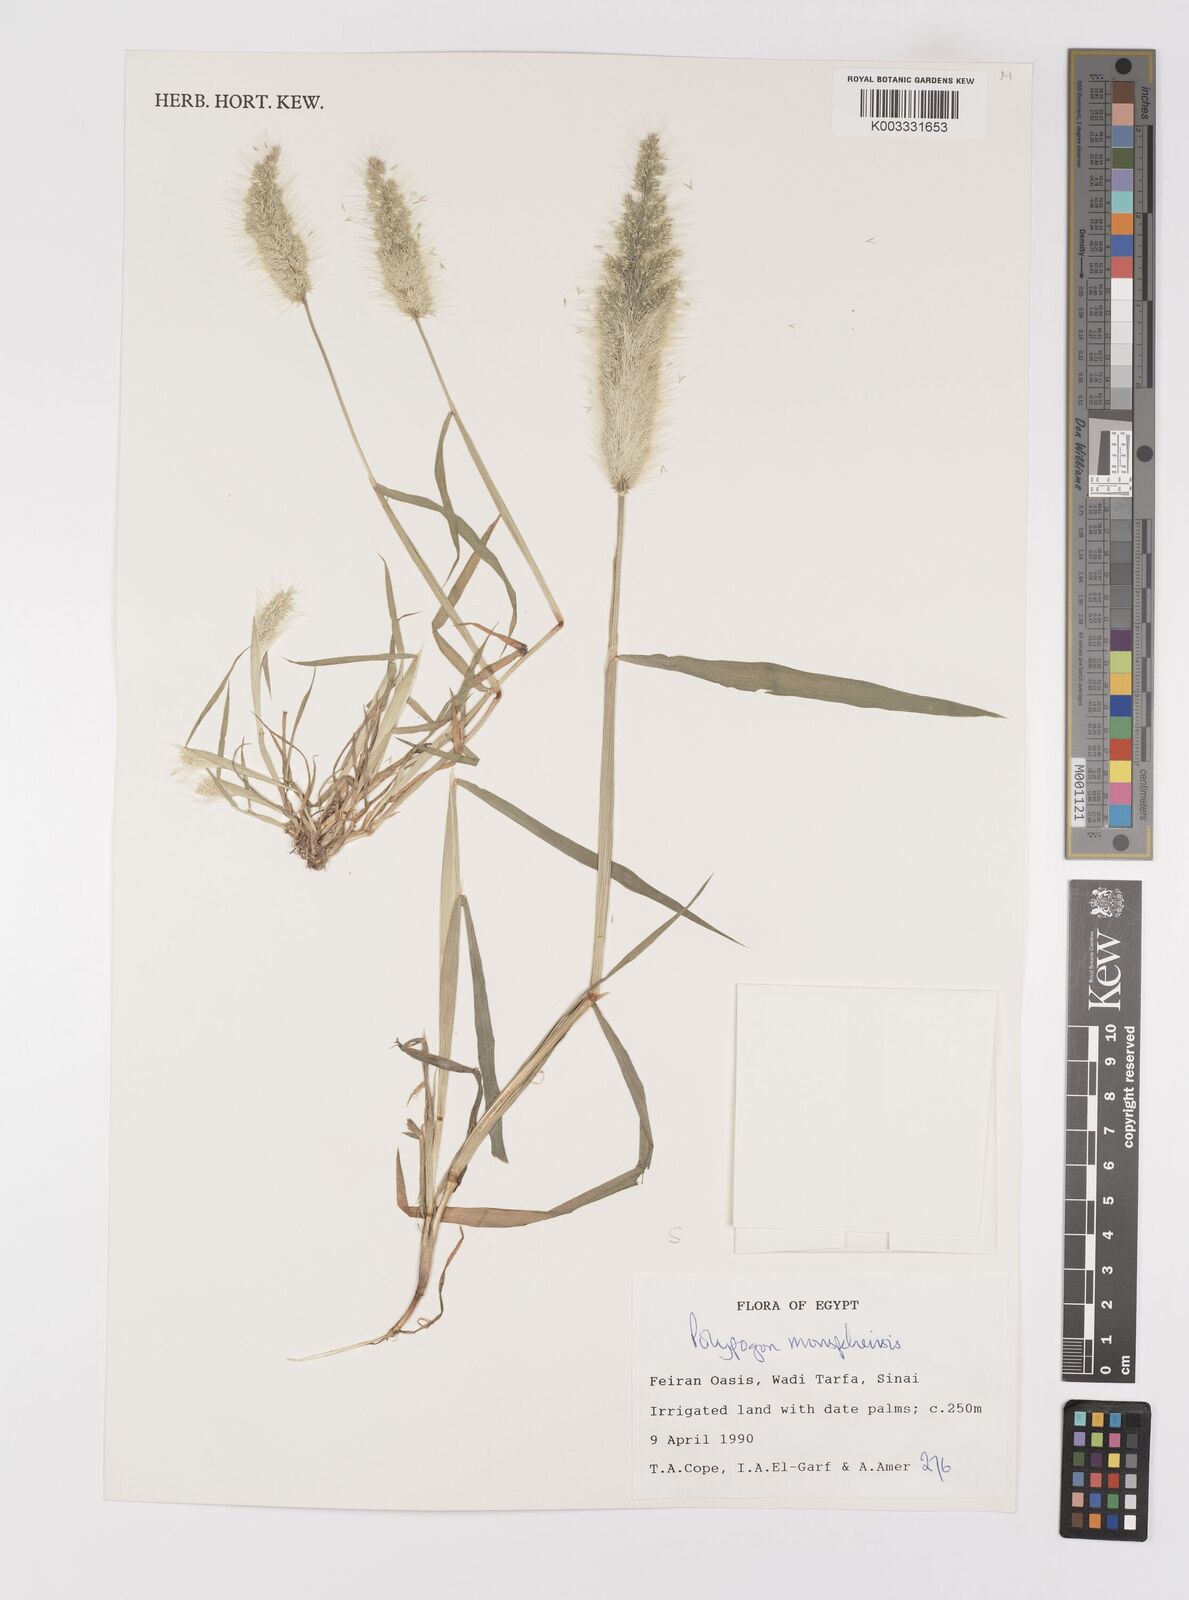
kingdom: Plantae
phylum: Tracheophyta
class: Liliopsida
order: Poales
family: Poaceae
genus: Polypogon
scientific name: Polypogon monspeliensis
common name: Annual rabbitsfoot grass
